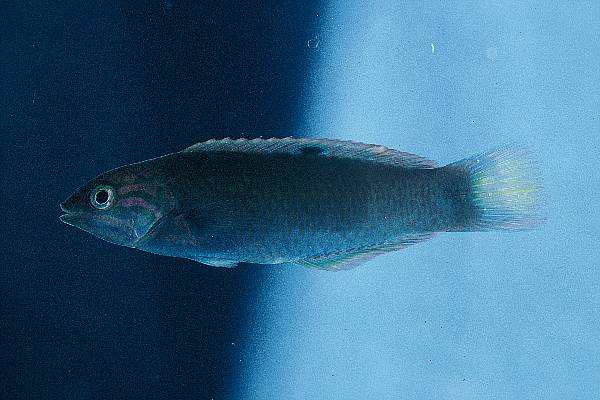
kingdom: Animalia
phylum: Chordata
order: Perciformes
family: Labridae
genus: Halichoeres
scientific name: Halichoeres
